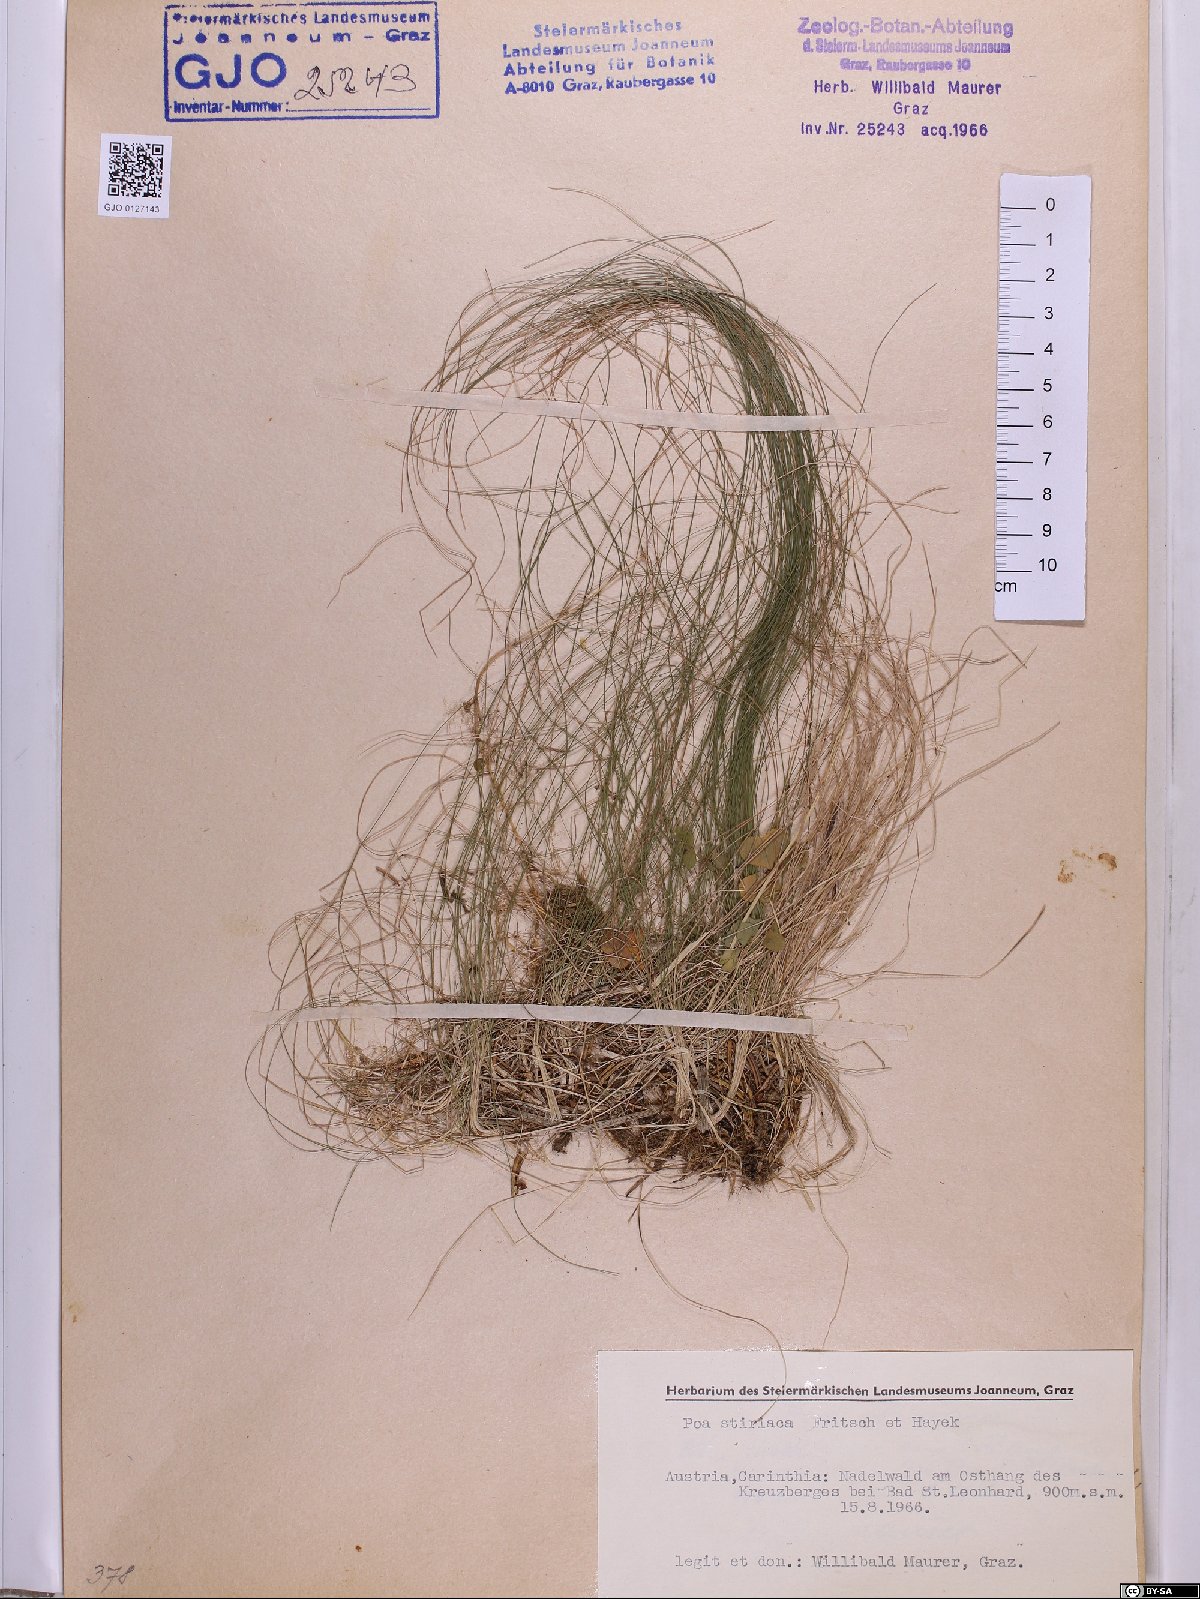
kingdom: Plantae
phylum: Tracheophyta
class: Liliopsida
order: Poales
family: Poaceae
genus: Poa
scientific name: Poa stiriaca
